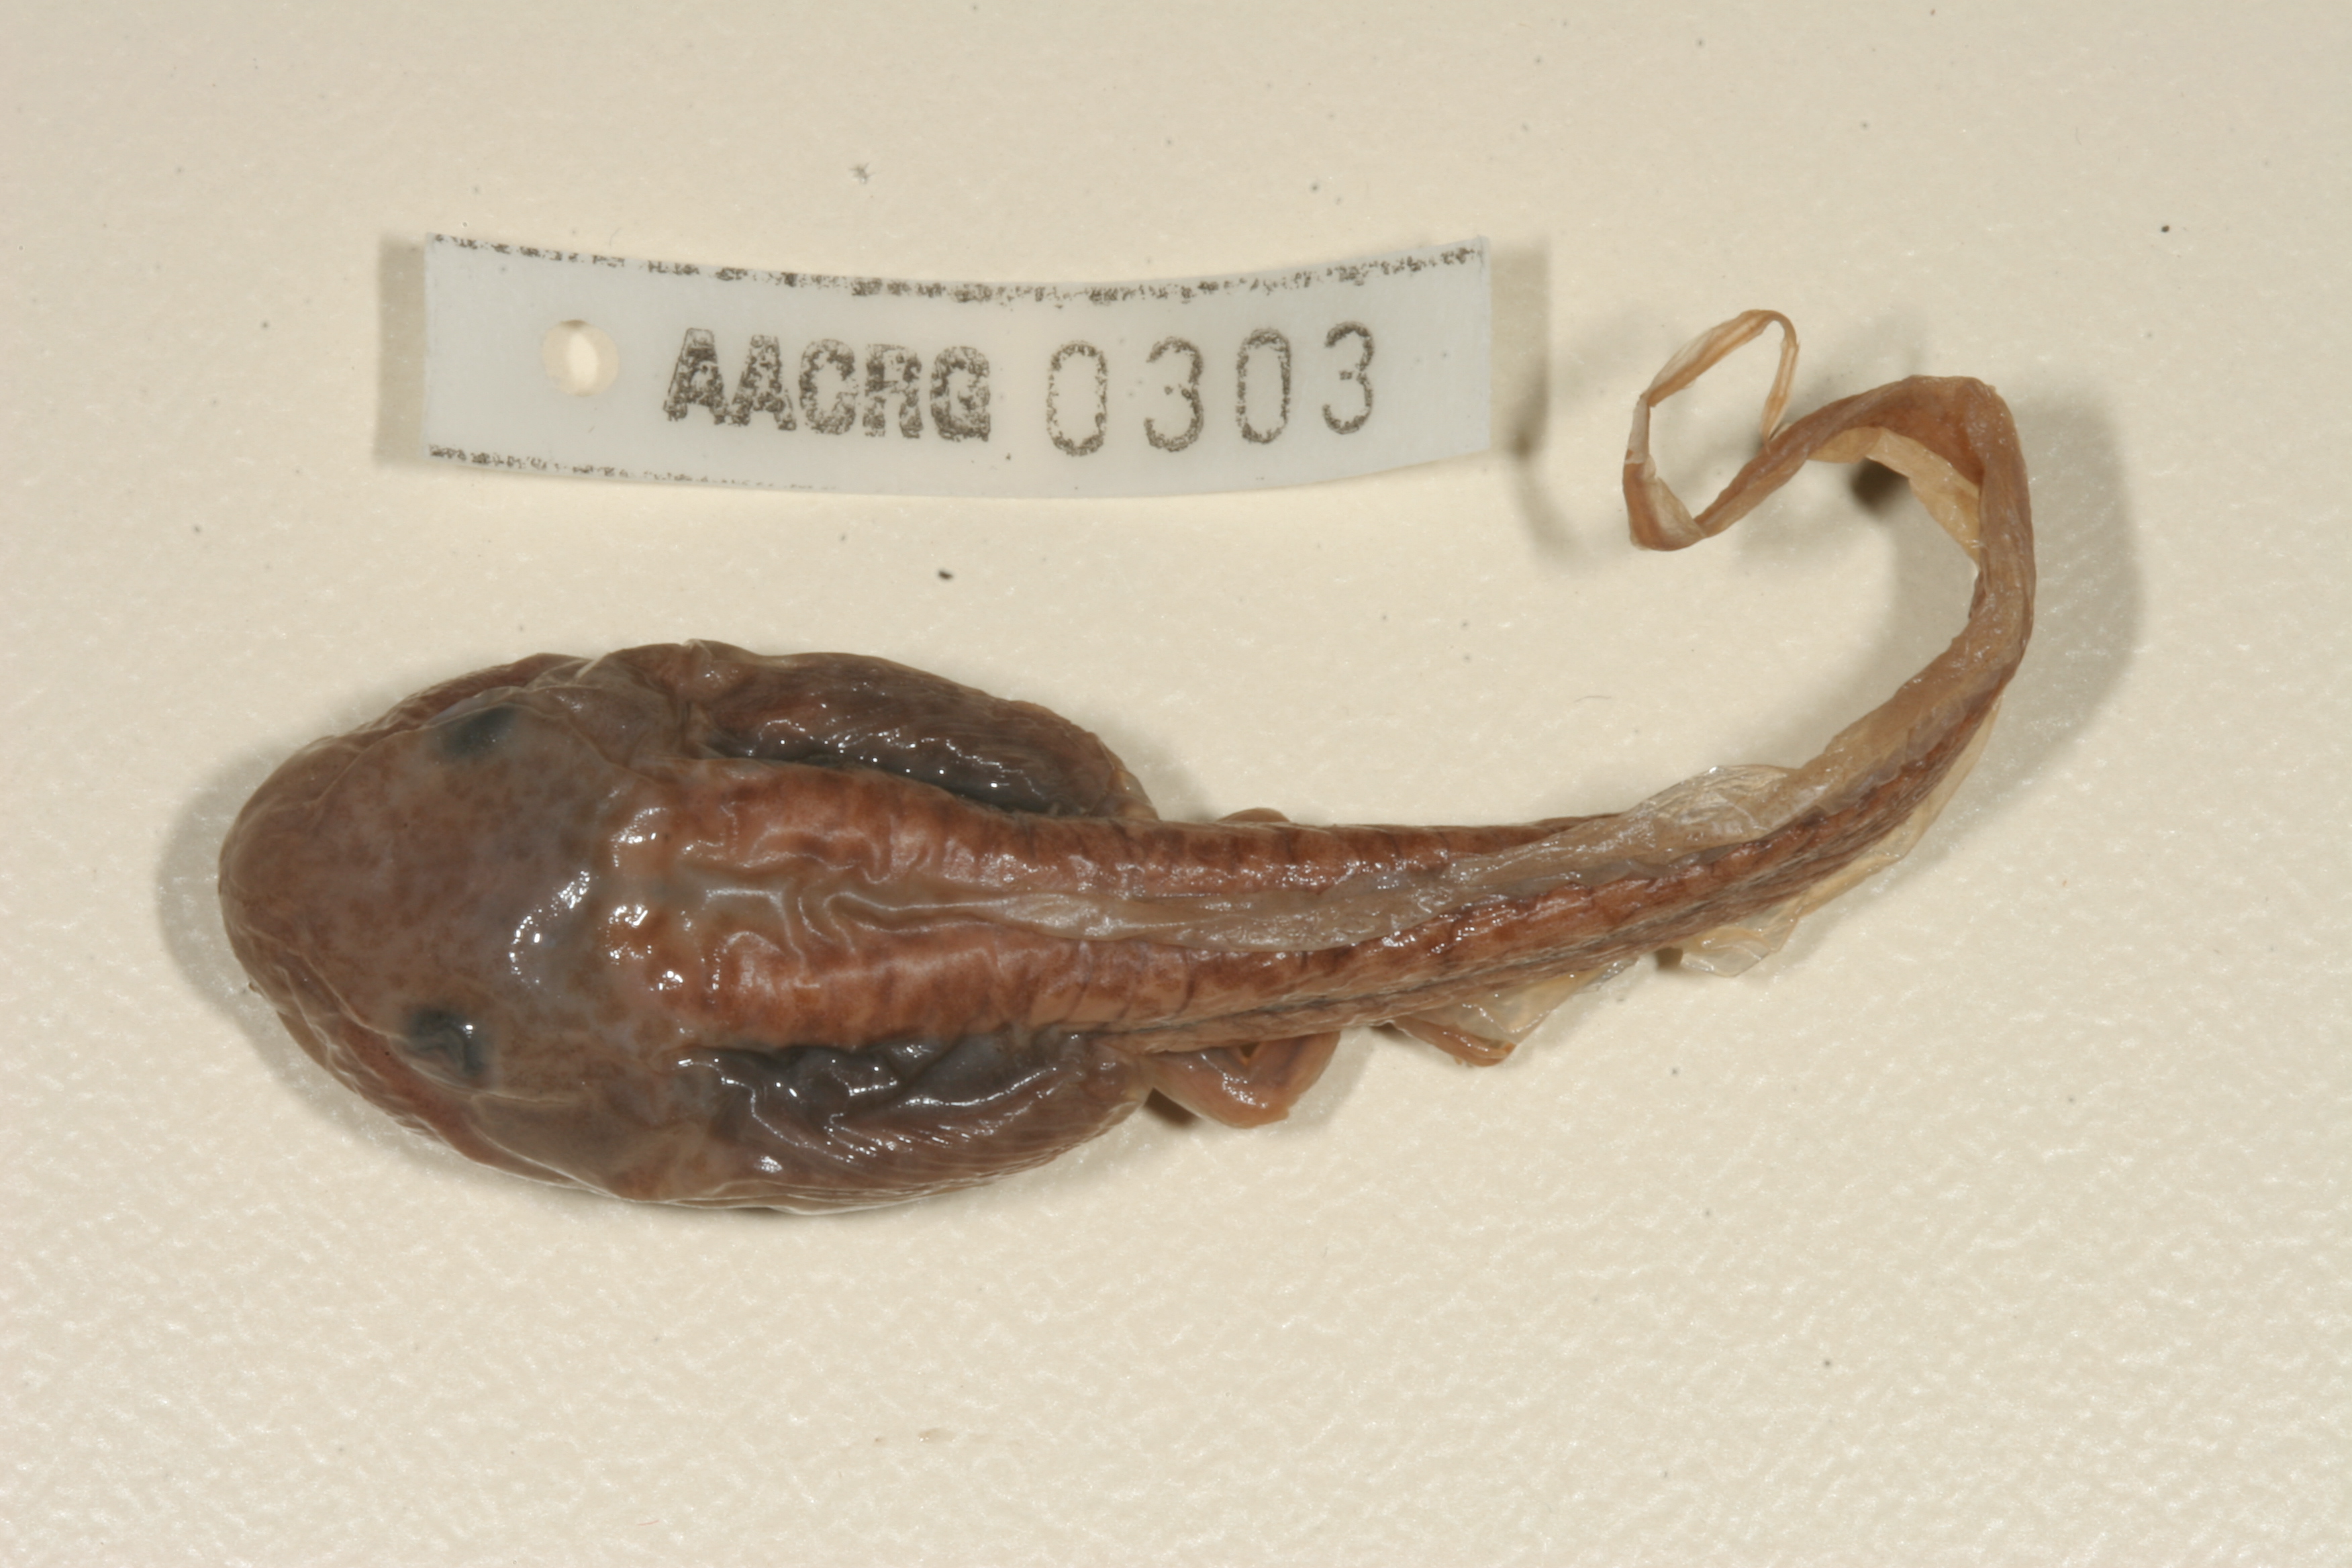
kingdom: Animalia
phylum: Chordata
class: Amphibia
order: Anura
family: Ptychadenidae
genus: Hildebrandtia
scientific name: Hildebrandtia ornata
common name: Ornate frog
